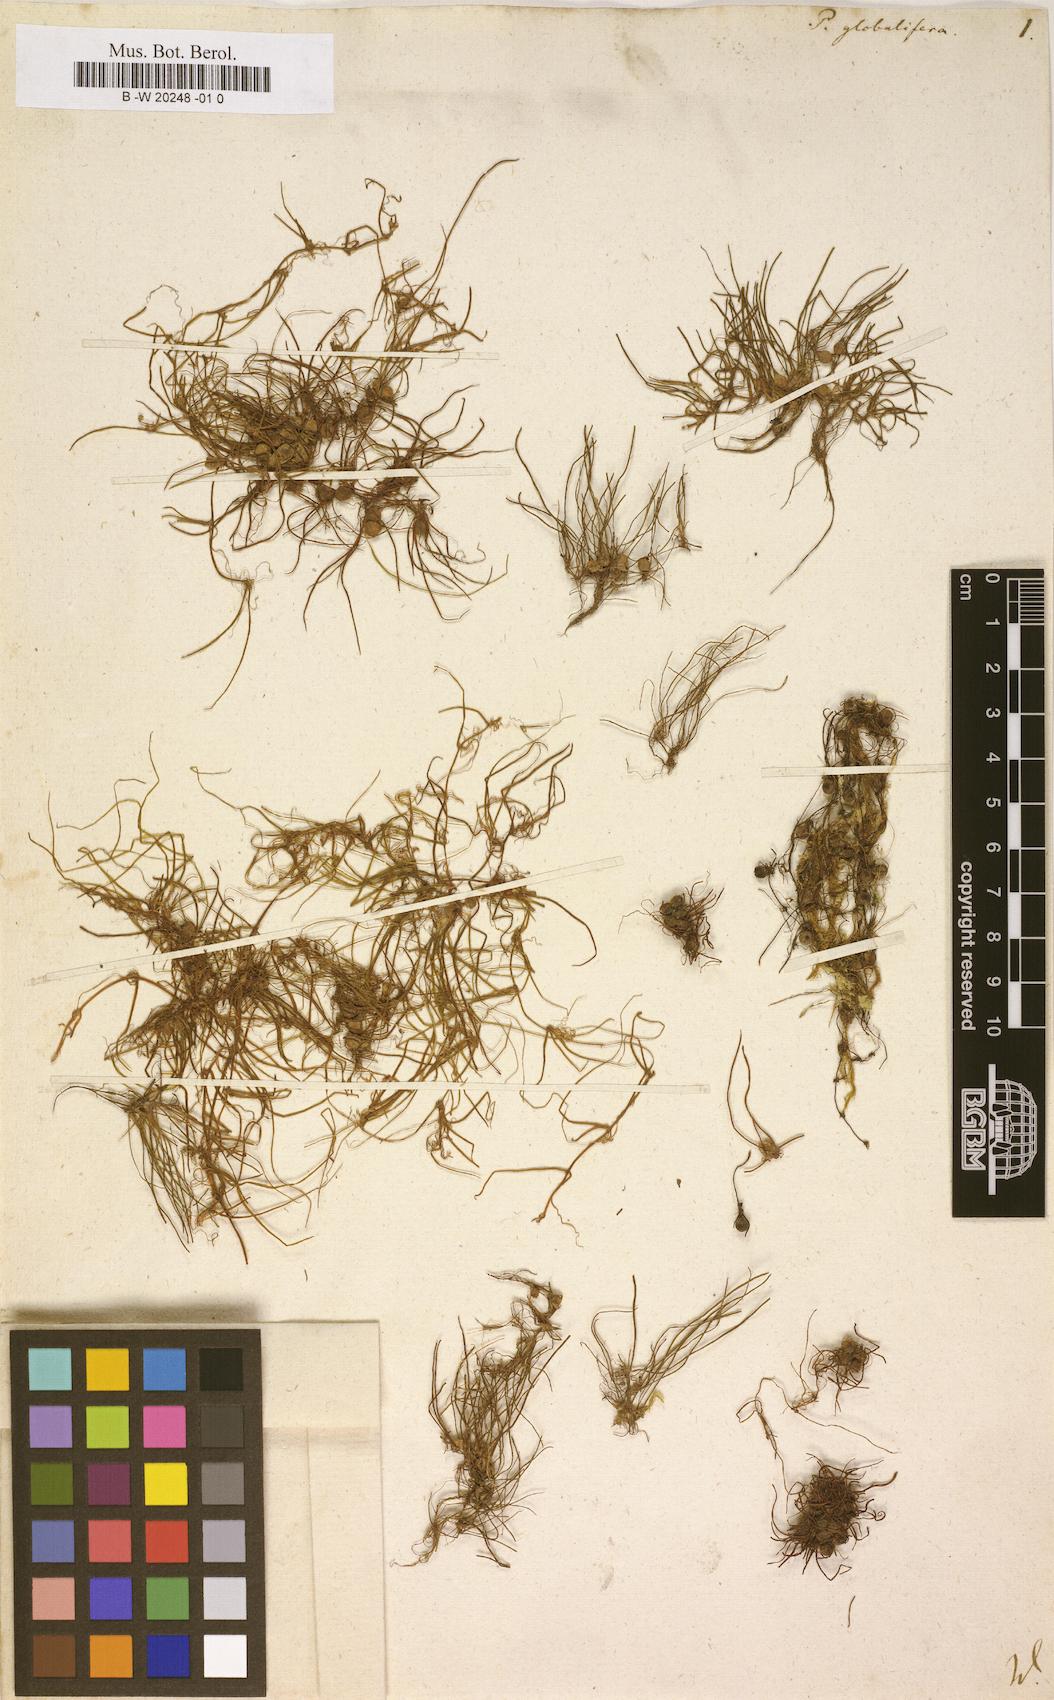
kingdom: Plantae
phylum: Tracheophyta
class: Polypodiopsida
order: Salviniales
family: Marsileaceae
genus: Pilularia
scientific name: Pilularia globulifera
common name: Pillwort
